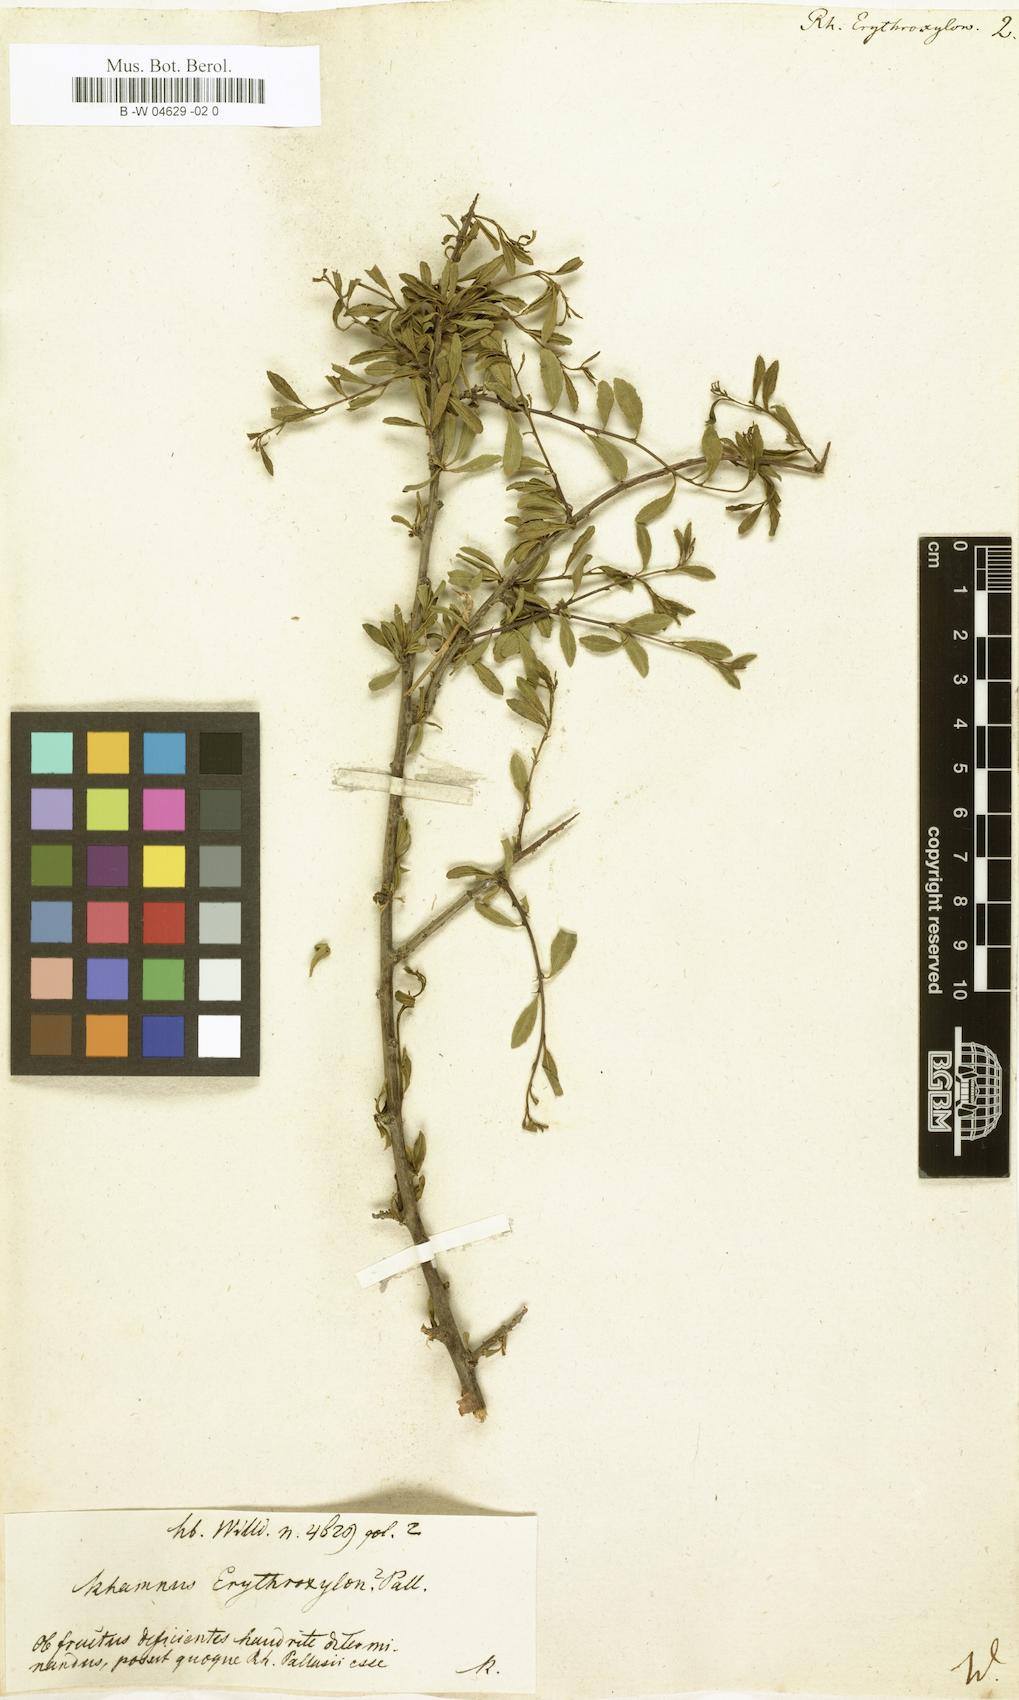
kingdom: Plantae
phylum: Tracheophyta
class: Magnoliopsida
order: Rosales
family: Rhamnaceae
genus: Rhamnus
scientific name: Rhamnus erythroxyloides
